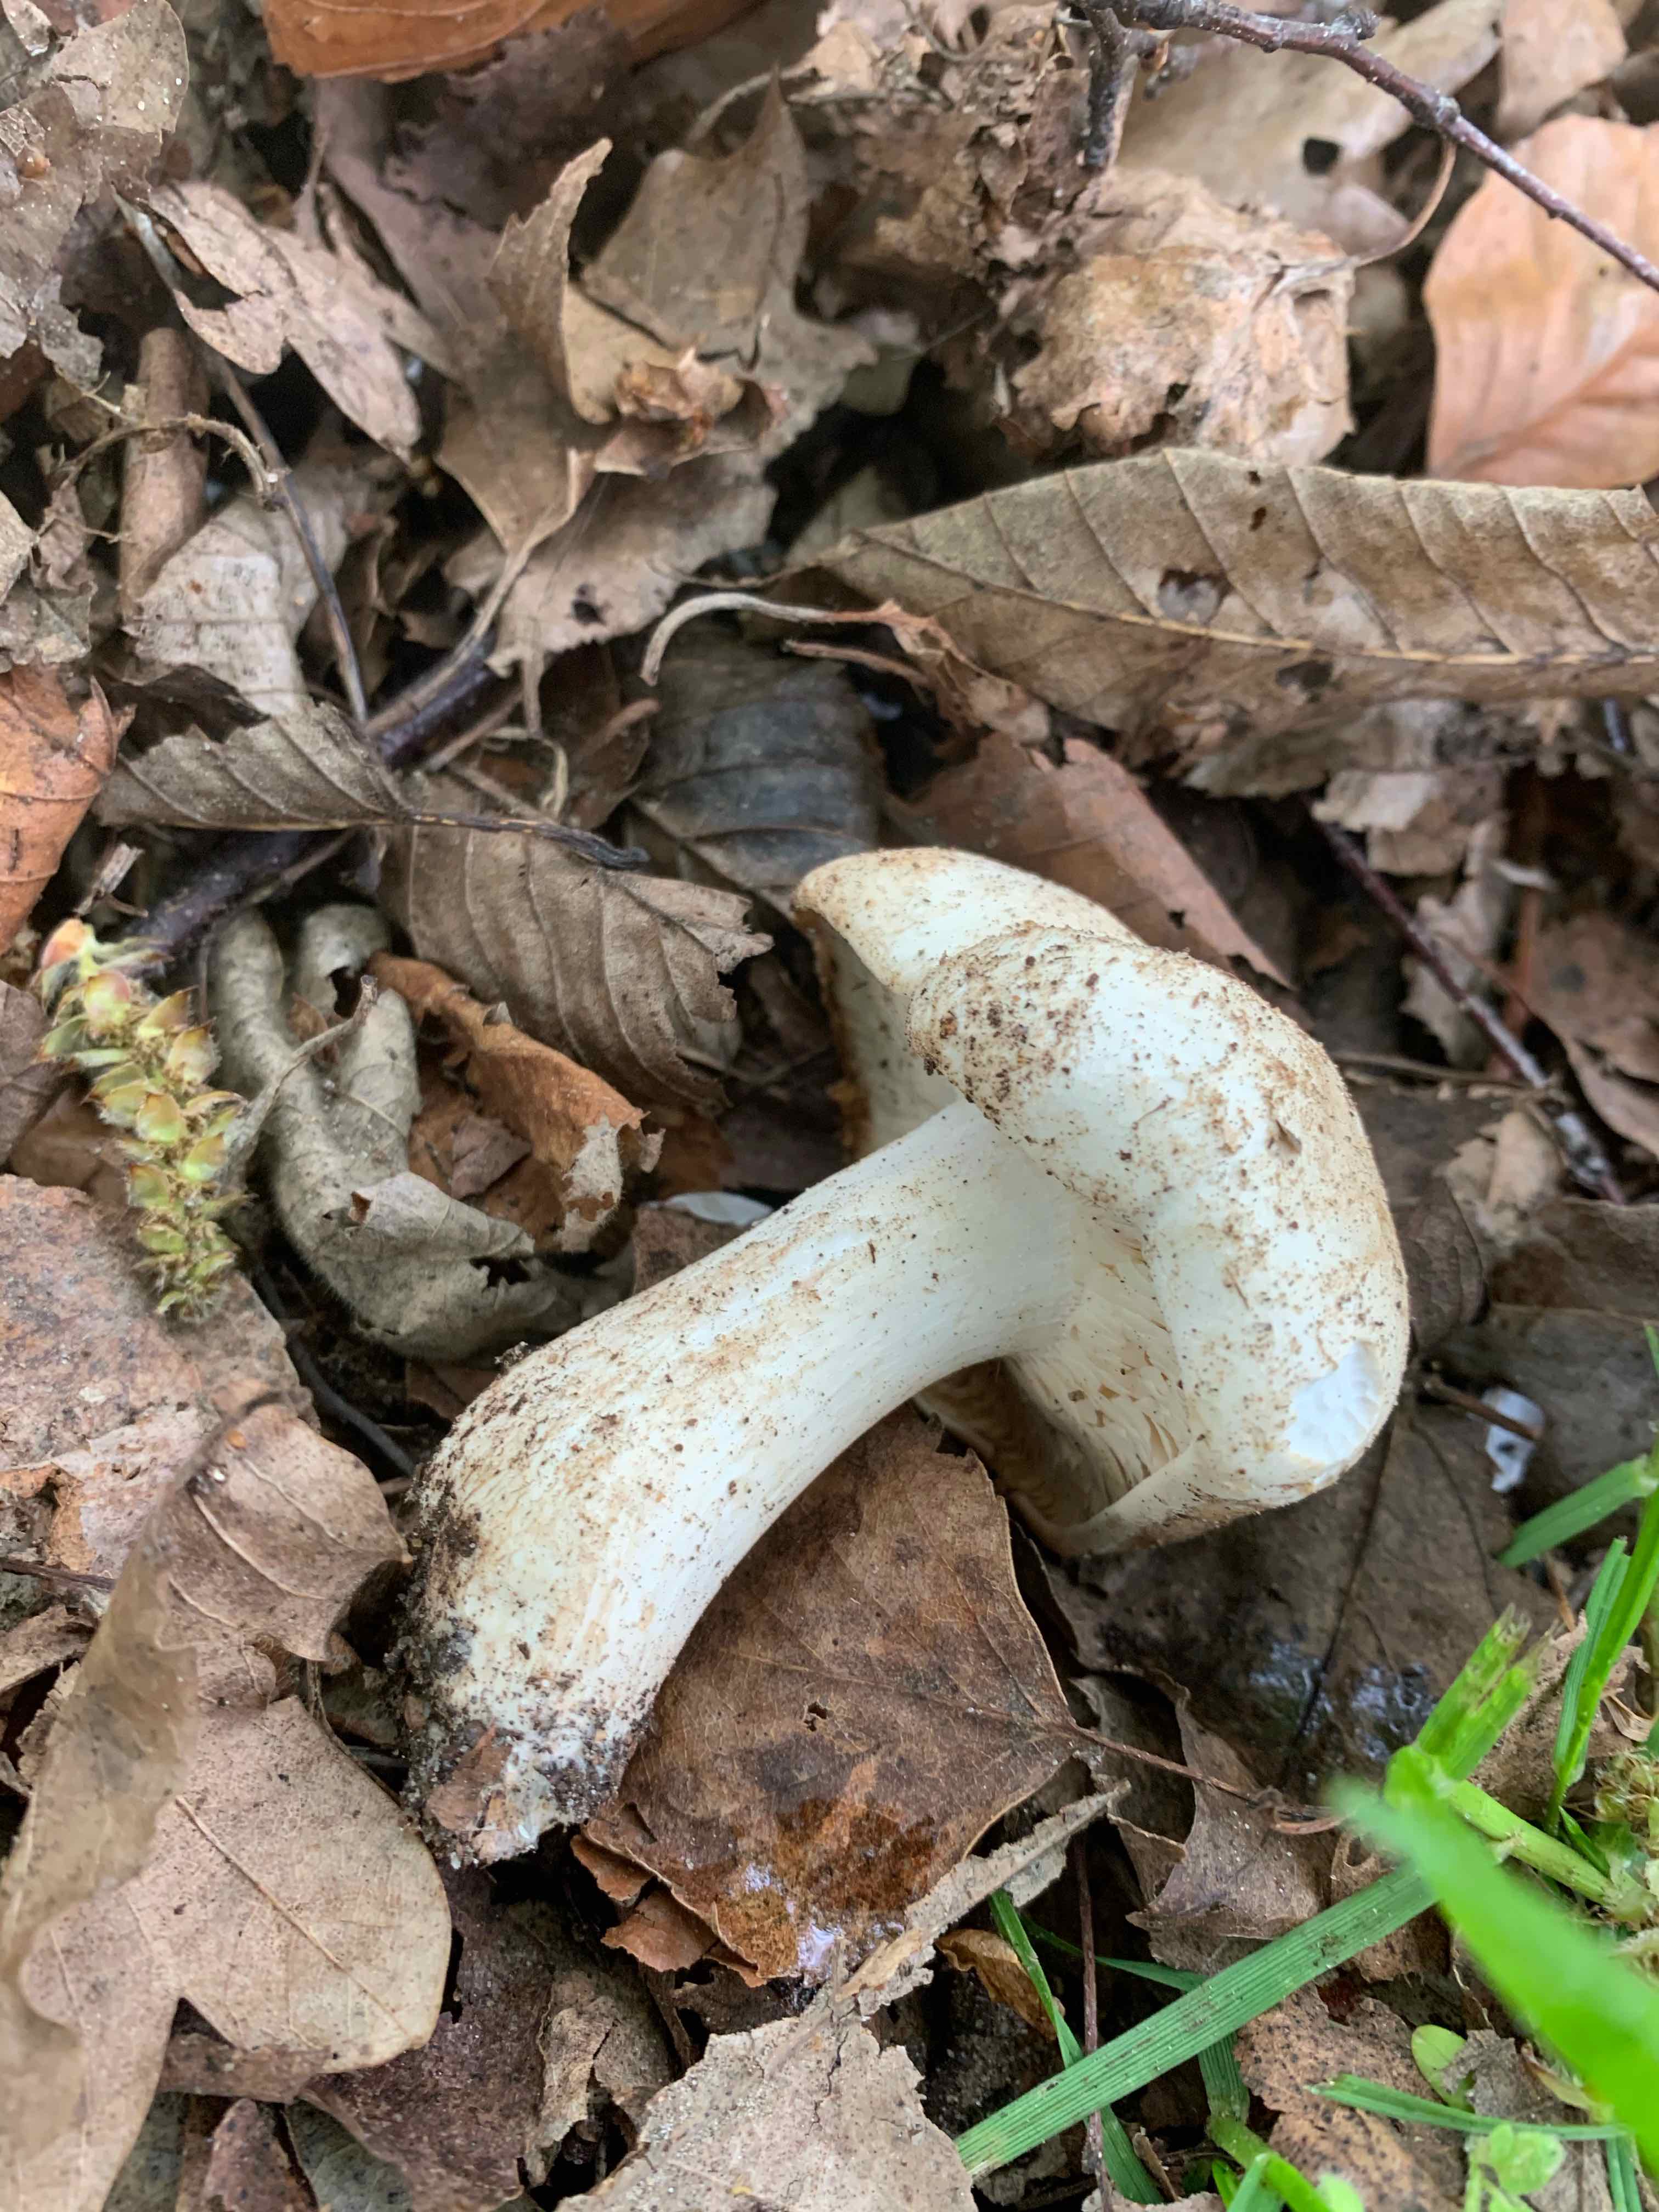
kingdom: Fungi
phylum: Basidiomycota
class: Agaricomycetes
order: Agaricales
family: Lyophyllaceae
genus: Calocybe
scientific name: Calocybe gambosa
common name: vårmusseron
